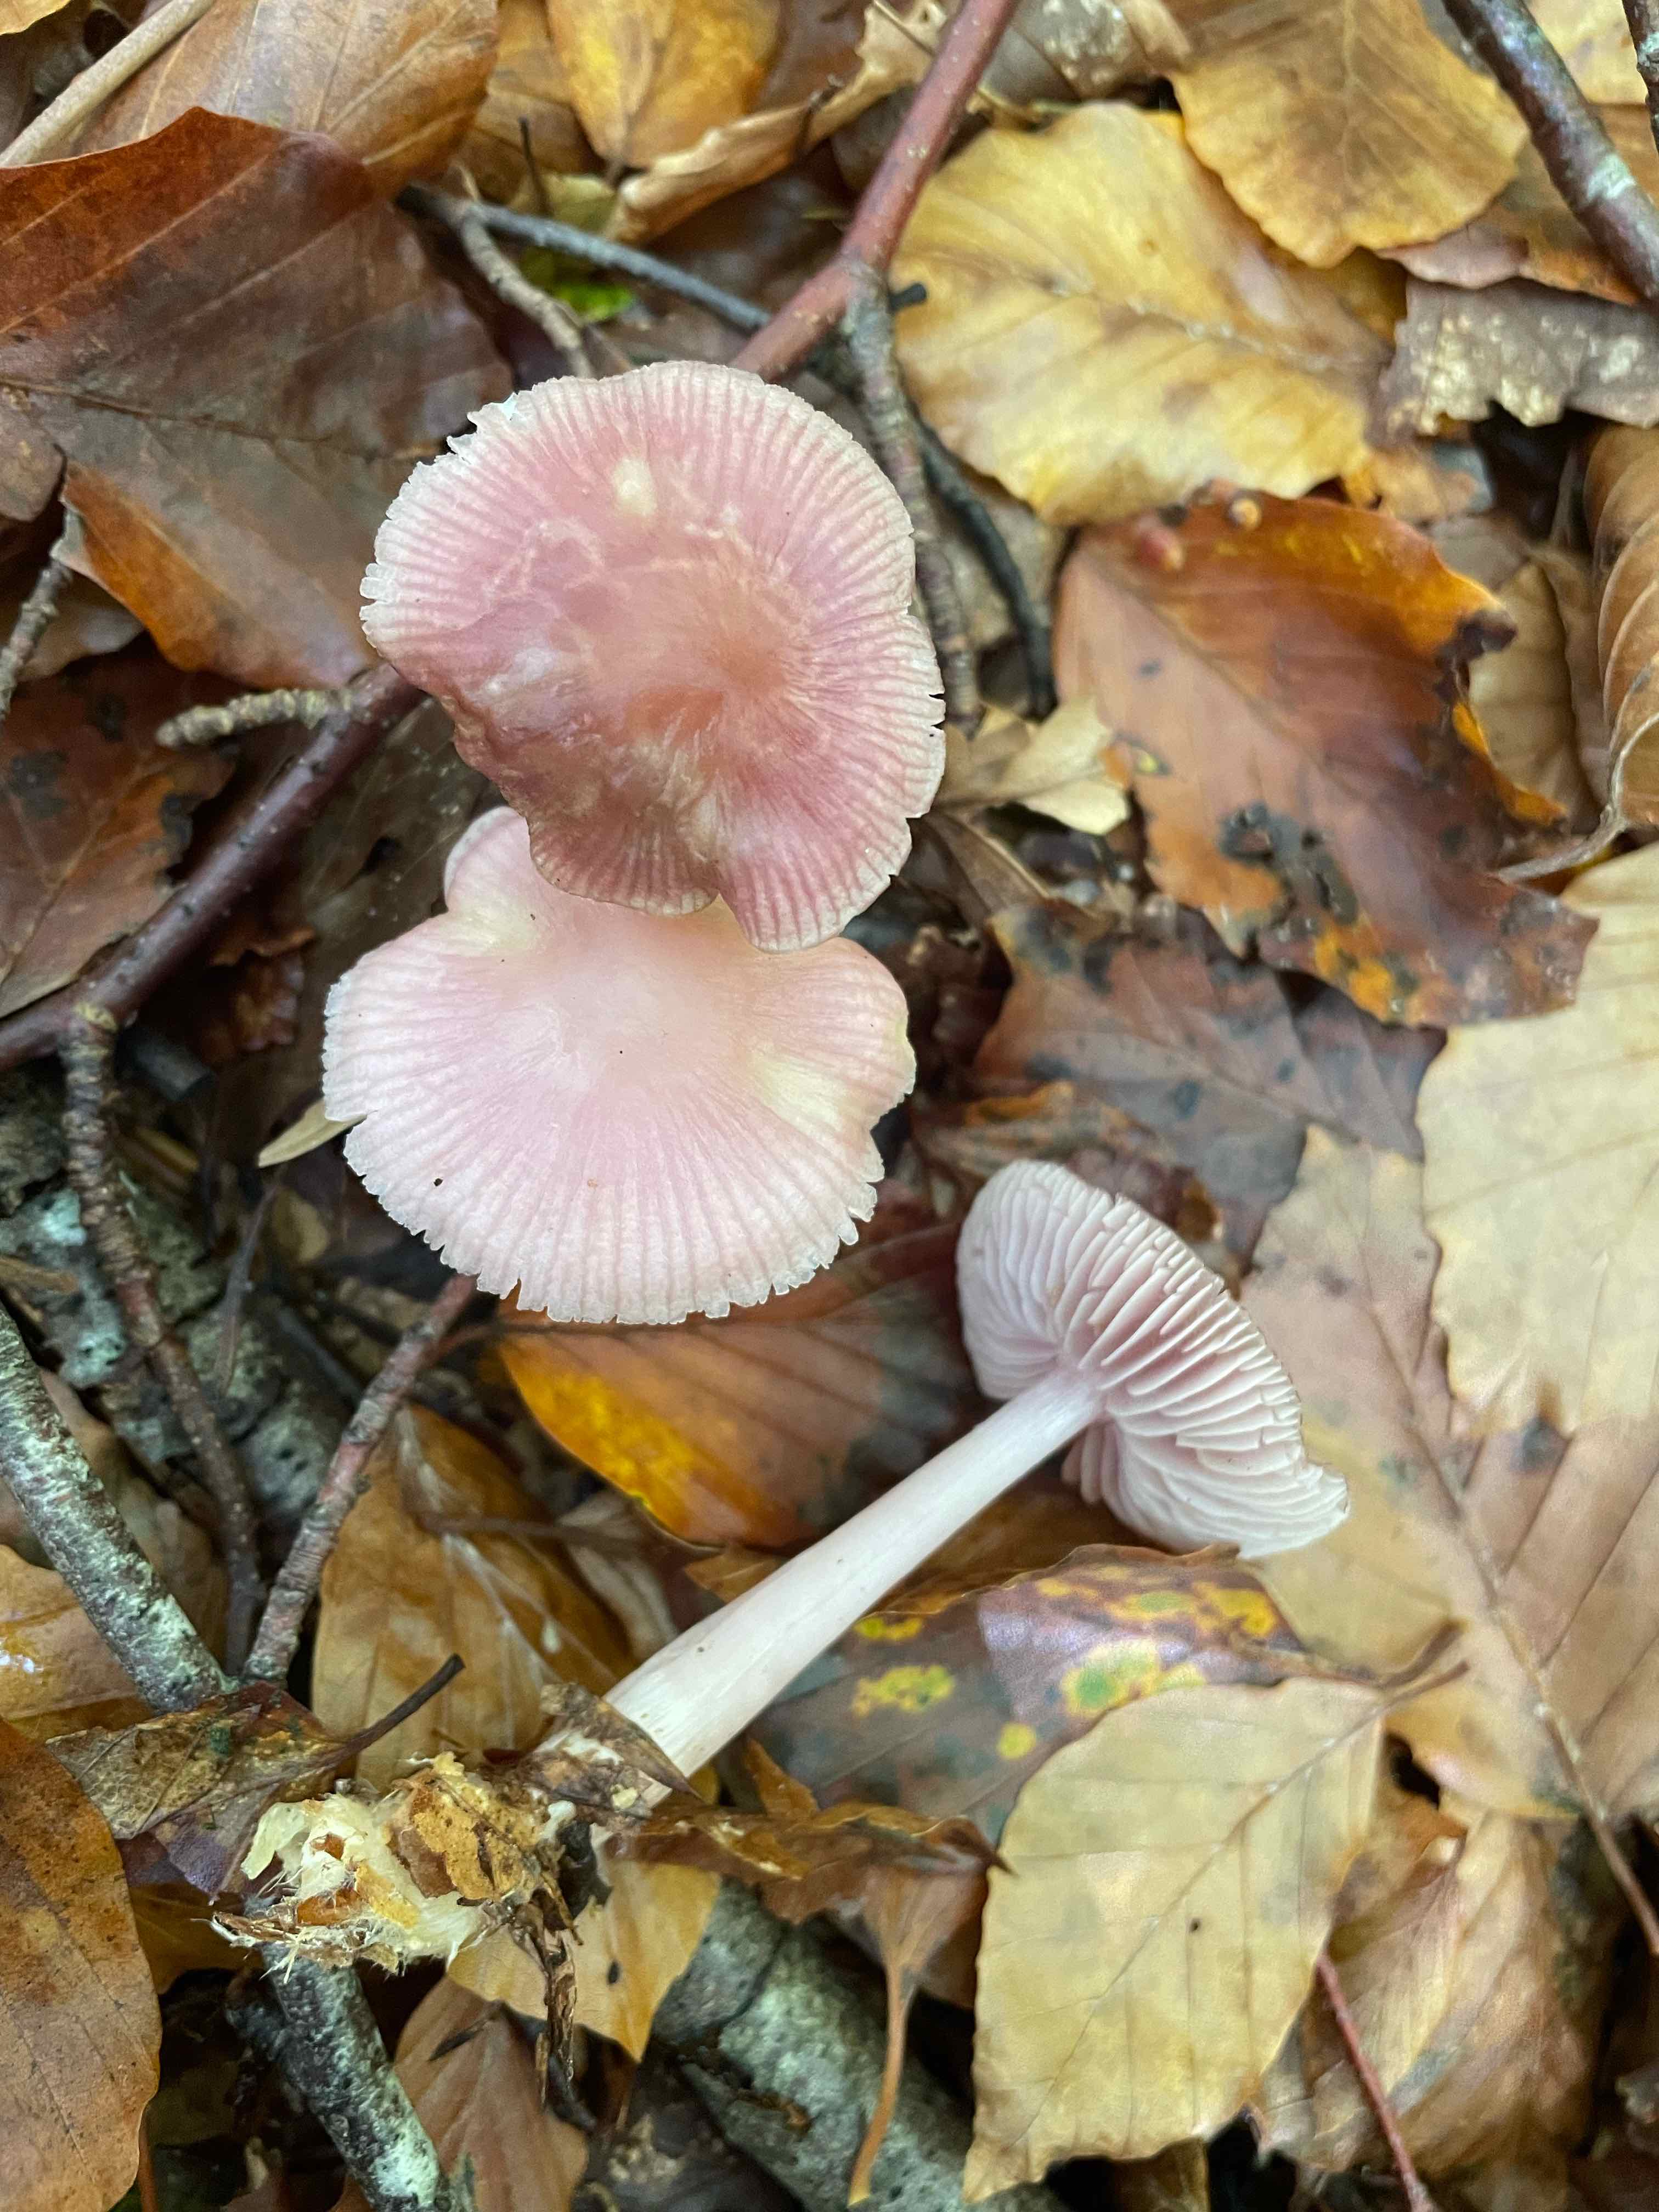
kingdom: Fungi
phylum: Basidiomycota
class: Agaricomycetes
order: Agaricales
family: Mycenaceae
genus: Mycena
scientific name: Mycena rosea
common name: rosa huesvamp
